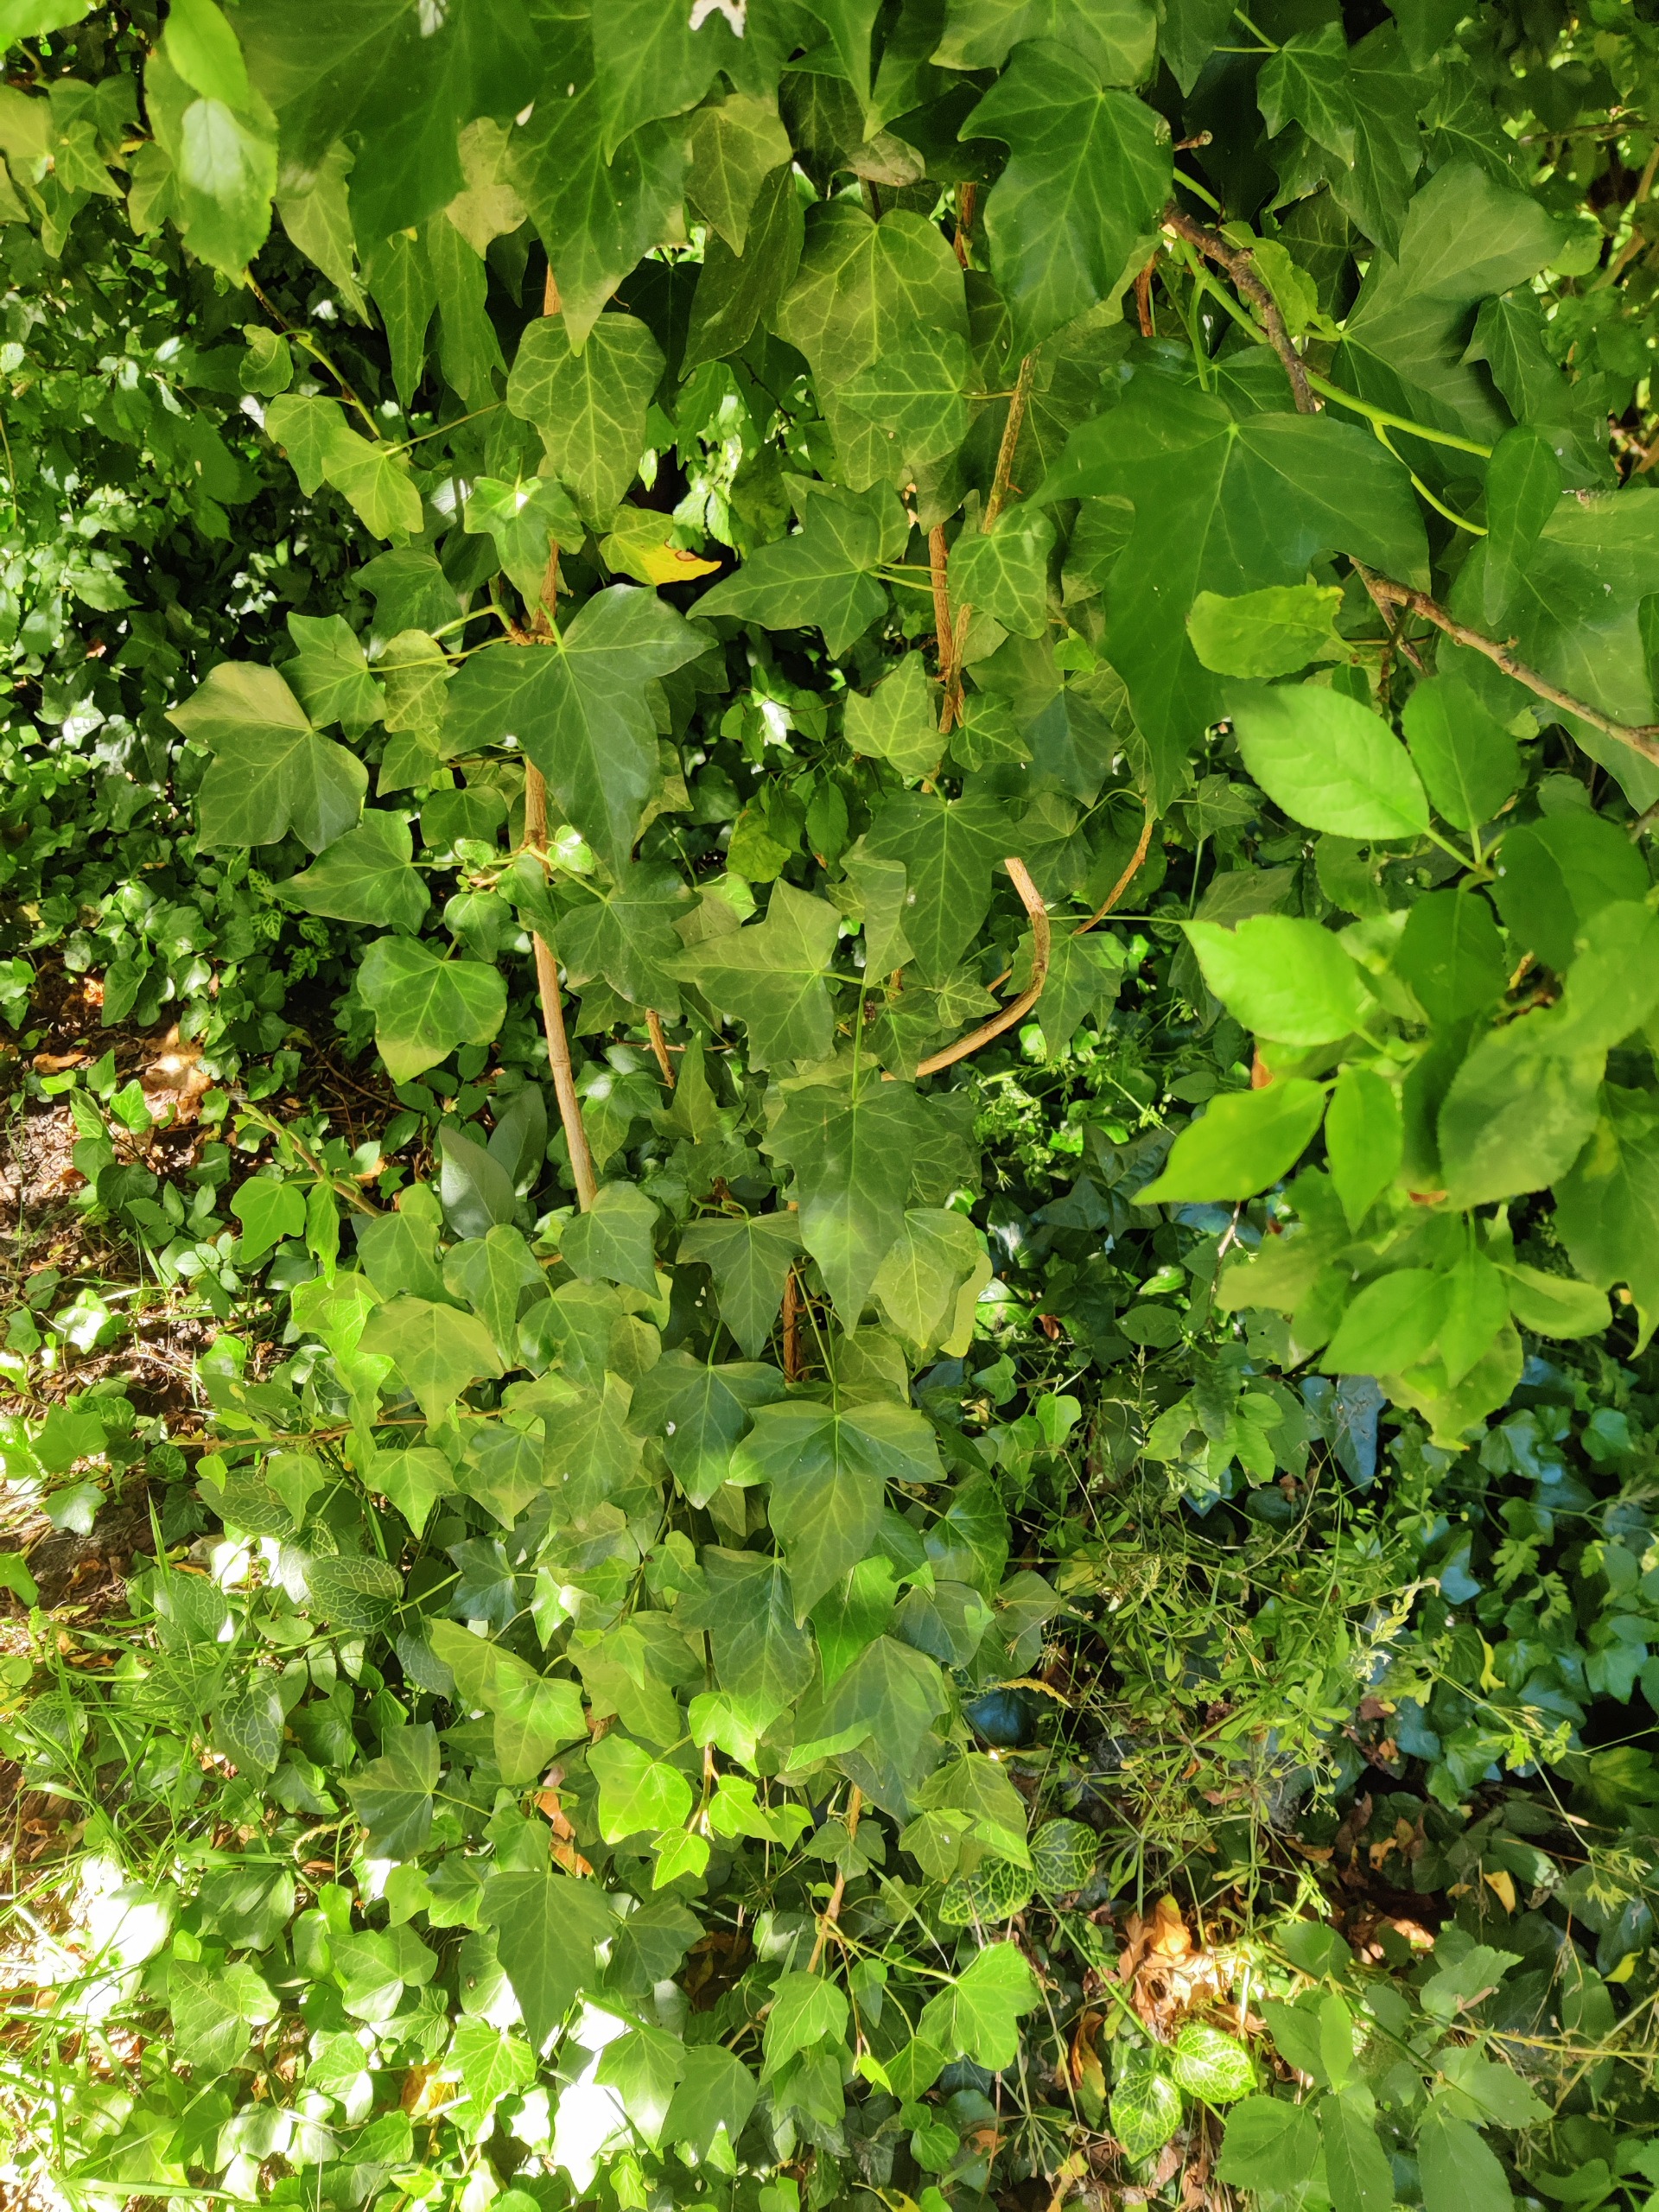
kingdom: Plantae
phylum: Tracheophyta
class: Magnoliopsida
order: Apiales
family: Araliaceae
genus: Hedera
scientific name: Hedera helix
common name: Vedbend
